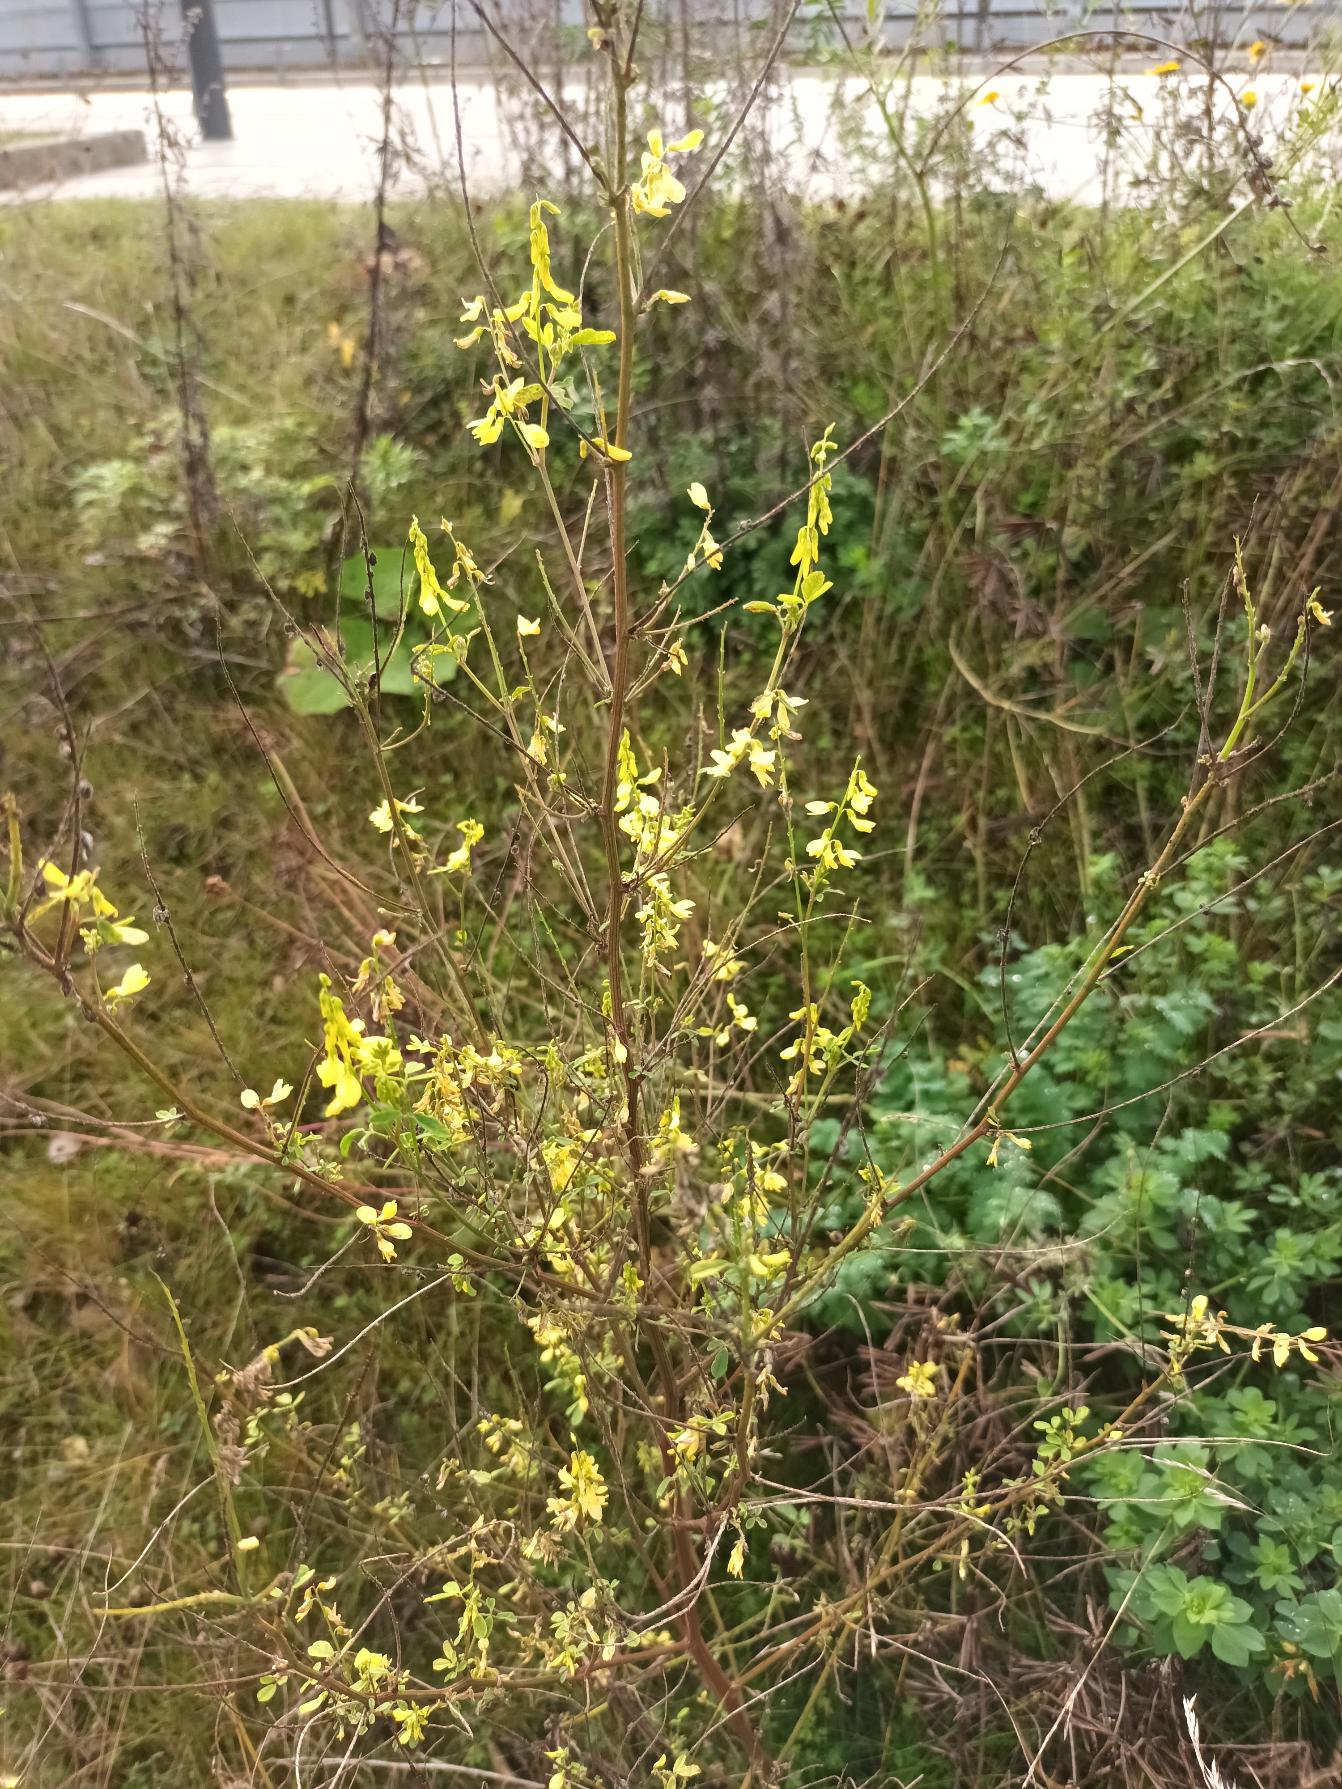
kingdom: Plantae
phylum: Tracheophyta
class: Magnoliopsida
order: Fabales
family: Fabaceae
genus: Melilotus
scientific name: Melilotus officinalis
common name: Mark-stenkløver
